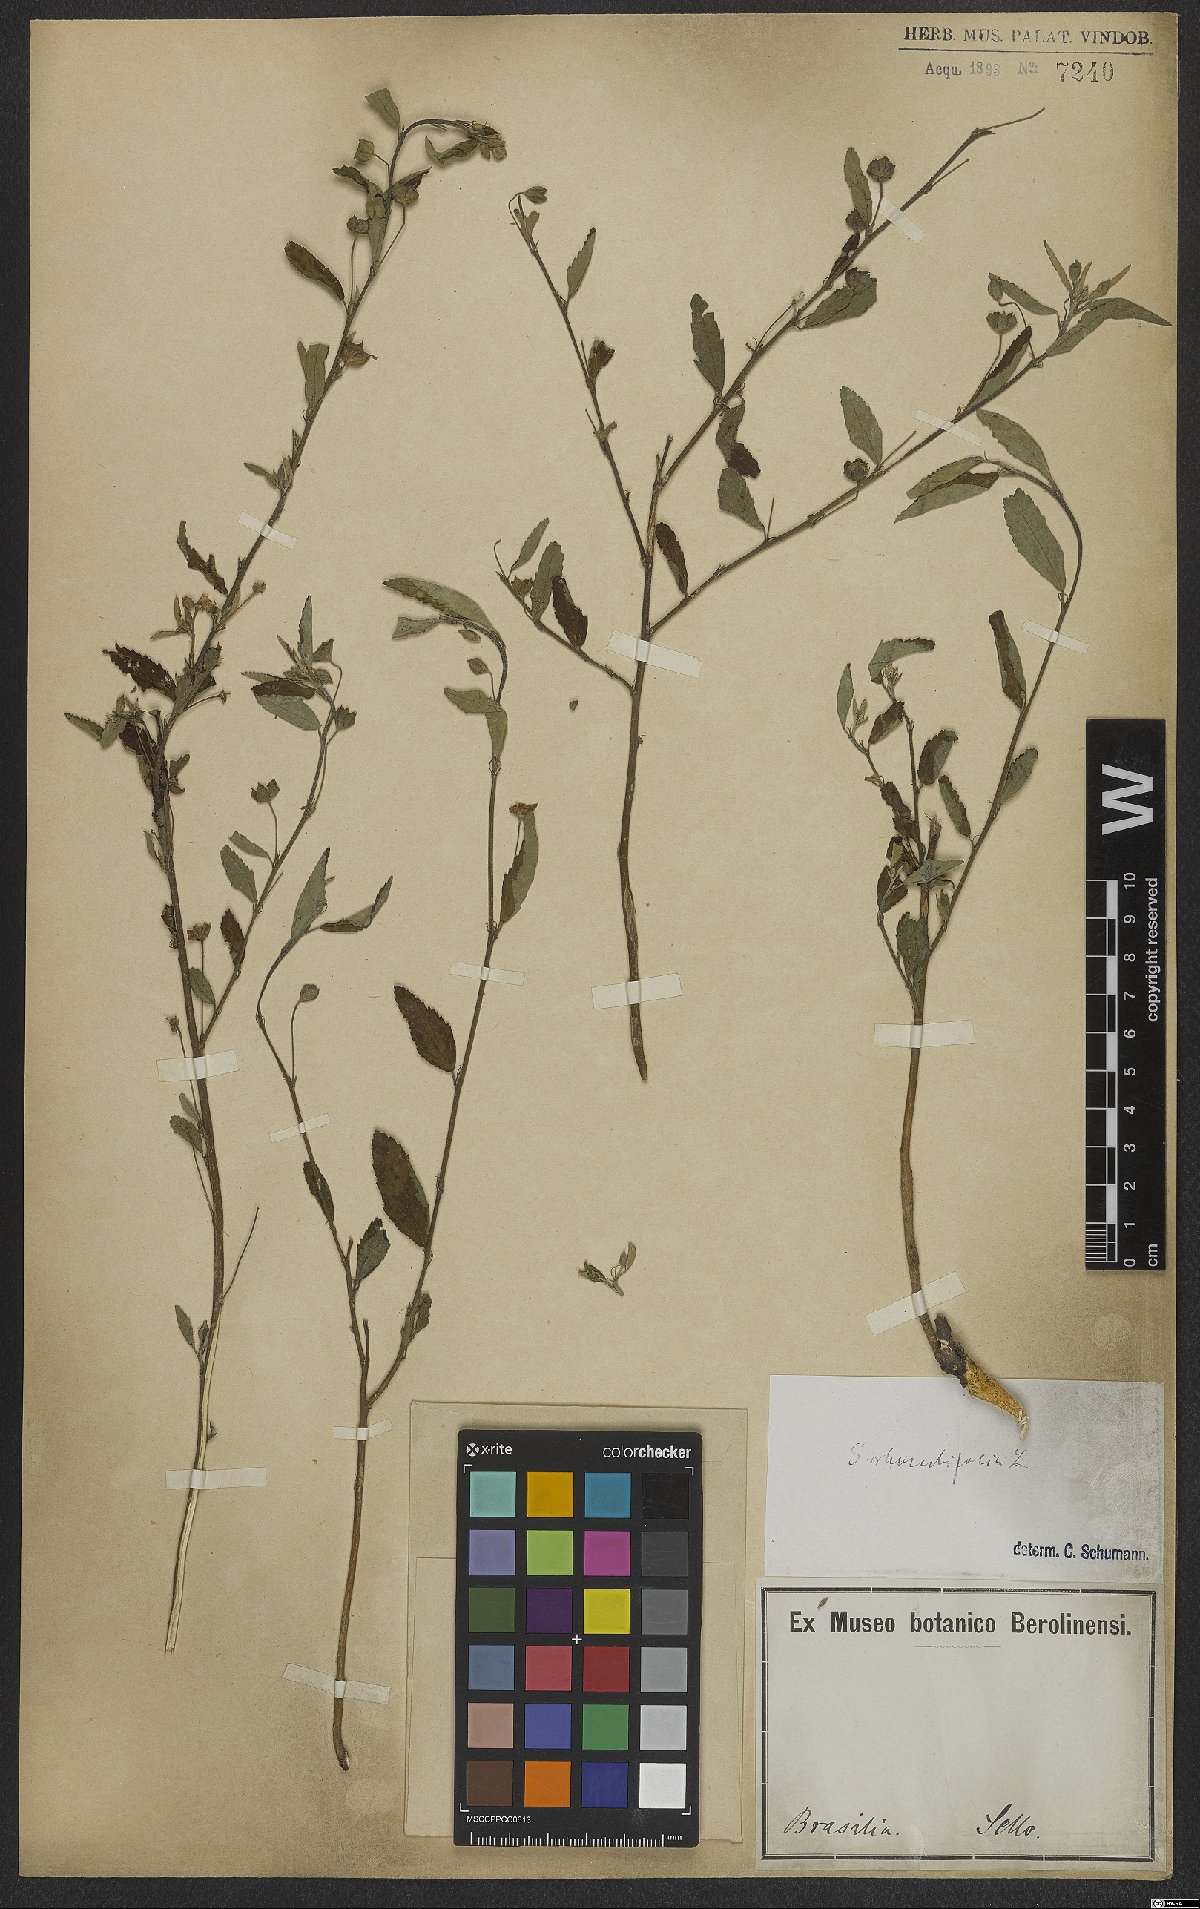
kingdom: Plantae
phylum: Tracheophyta
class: Magnoliopsida
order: Malvales
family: Malvaceae
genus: Sida
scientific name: Sida rhombifolia
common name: Queensland-hemp
